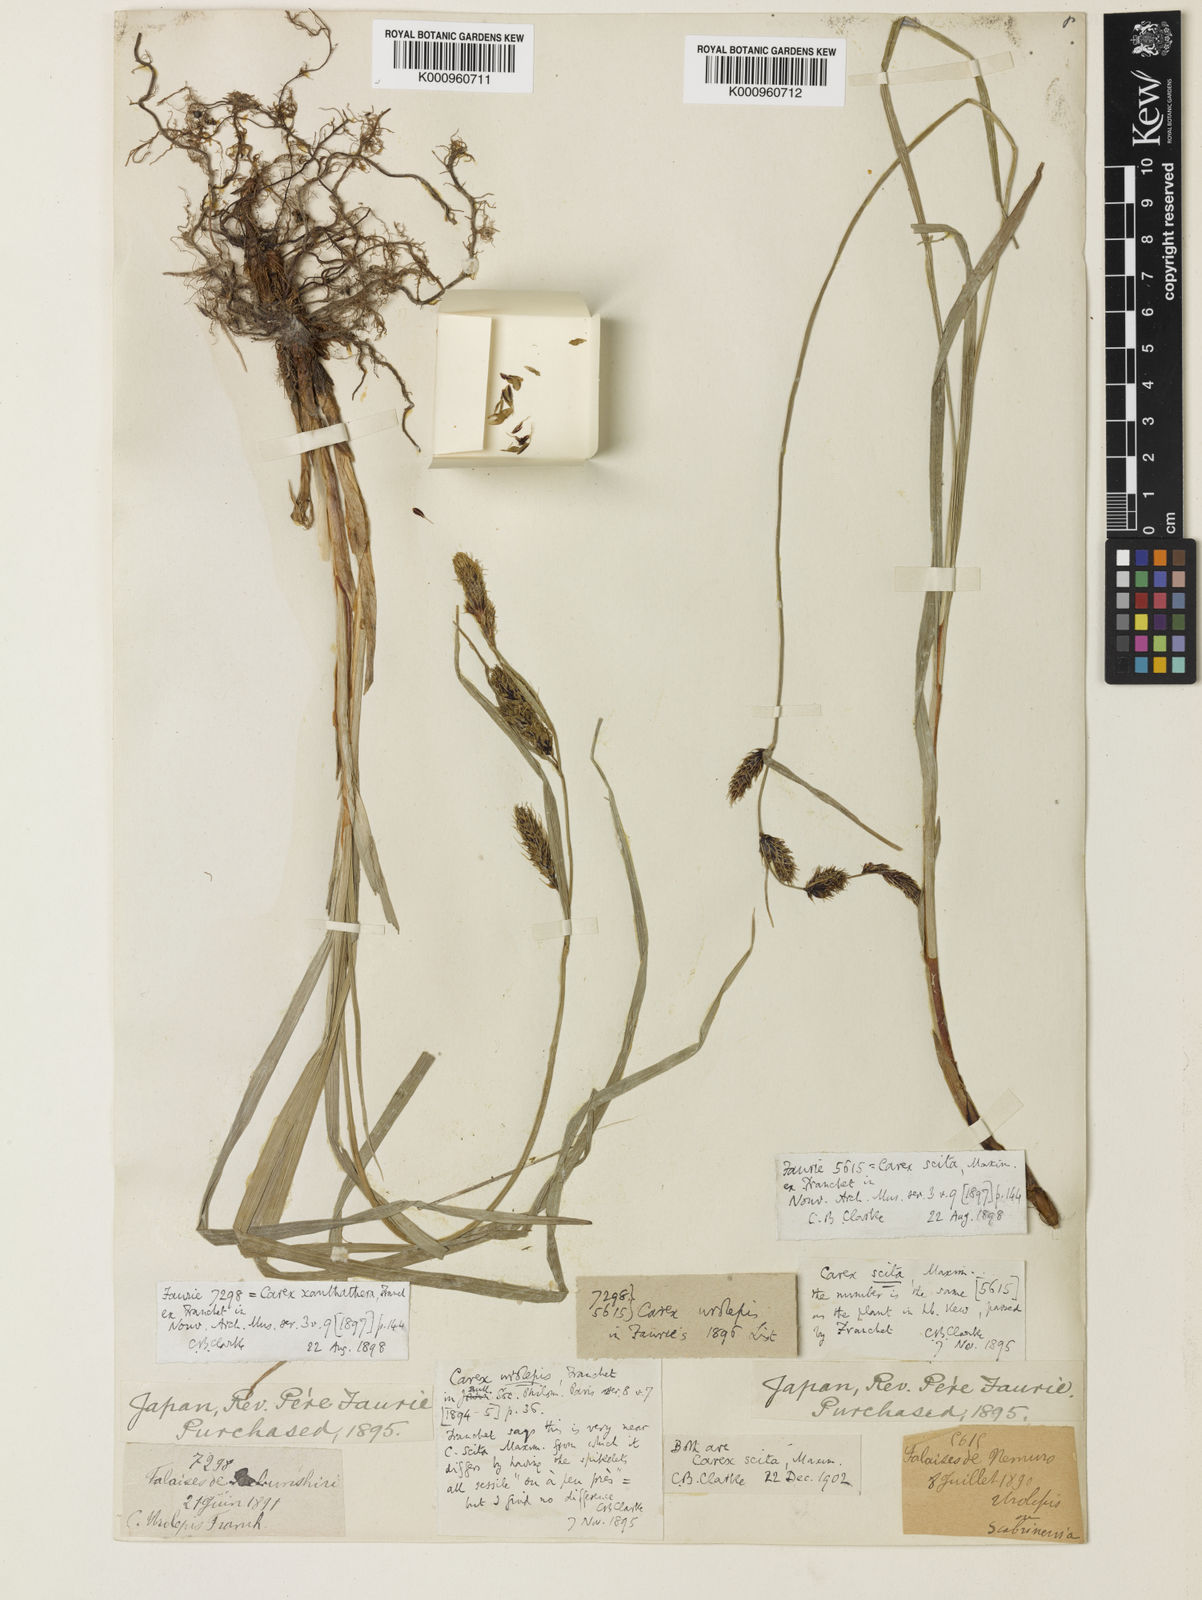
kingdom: Plantae
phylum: Tracheophyta
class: Liliopsida
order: Poales
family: Cyperaceae
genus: Carex
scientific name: Carex scita
